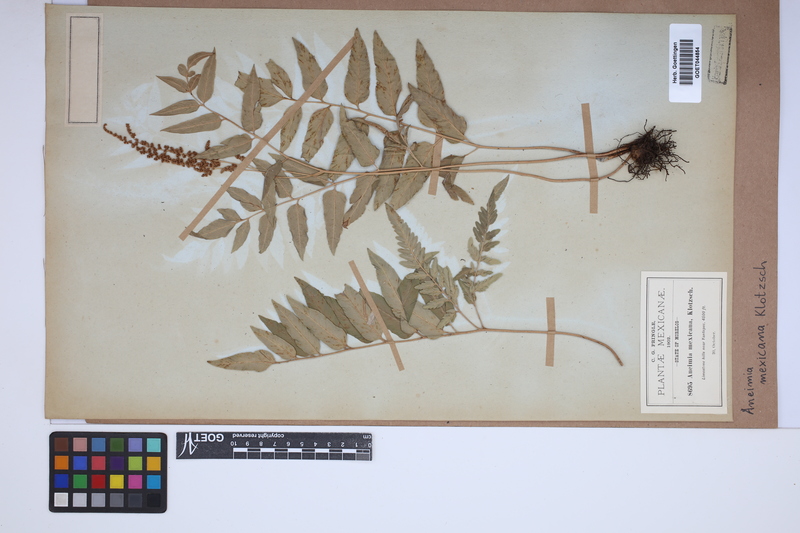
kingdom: Plantae
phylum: Tracheophyta
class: Polypodiopsida
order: Schizaeales
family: Anemiaceae
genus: Anemia
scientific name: Anemia mexicana
